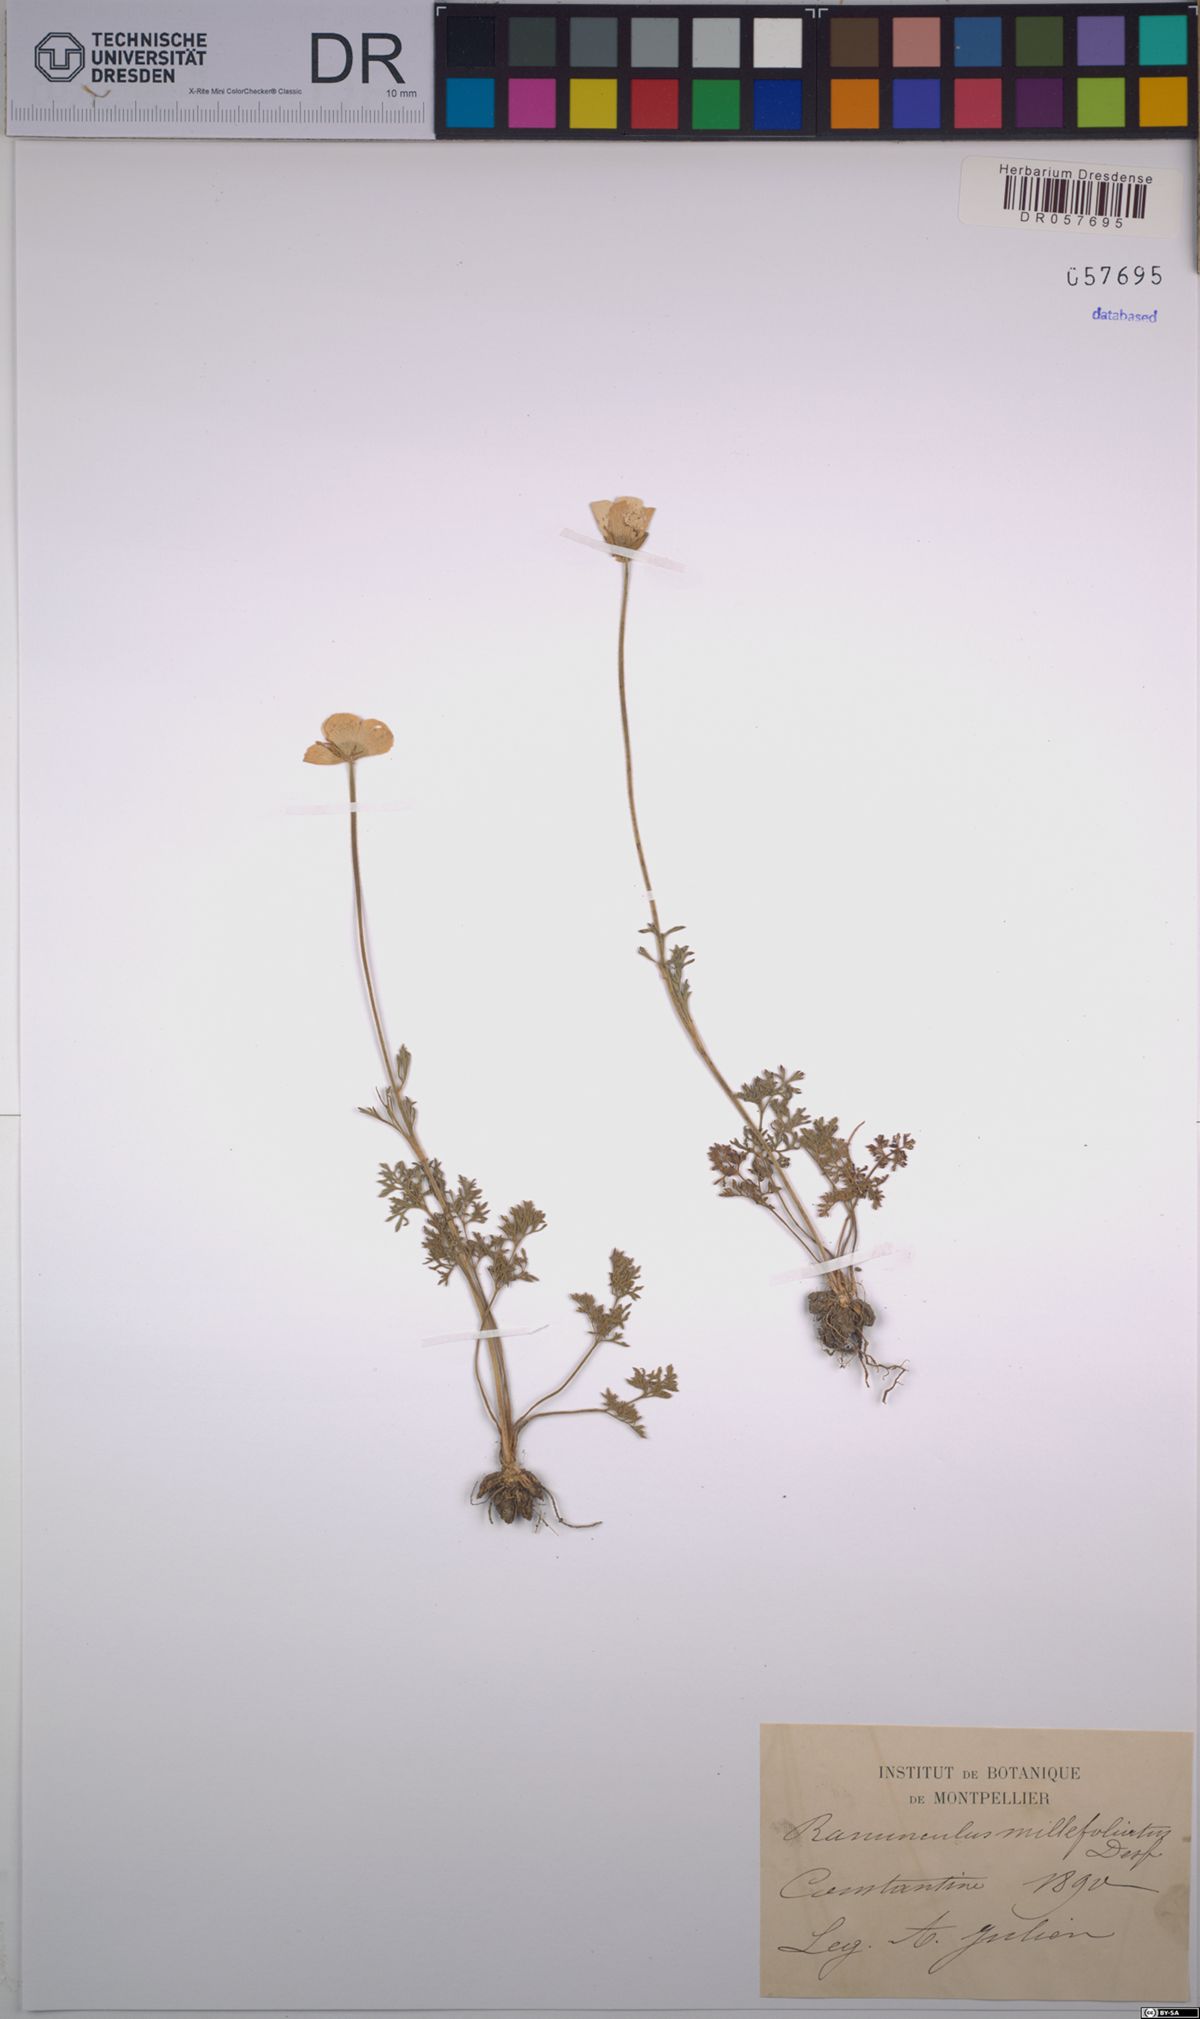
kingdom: Plantae
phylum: Tracheophyta
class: Magnoliopsida
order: Ranunculales
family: Ranunculaceae
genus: Ranunculus
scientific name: Ranunculus millefoliatus
